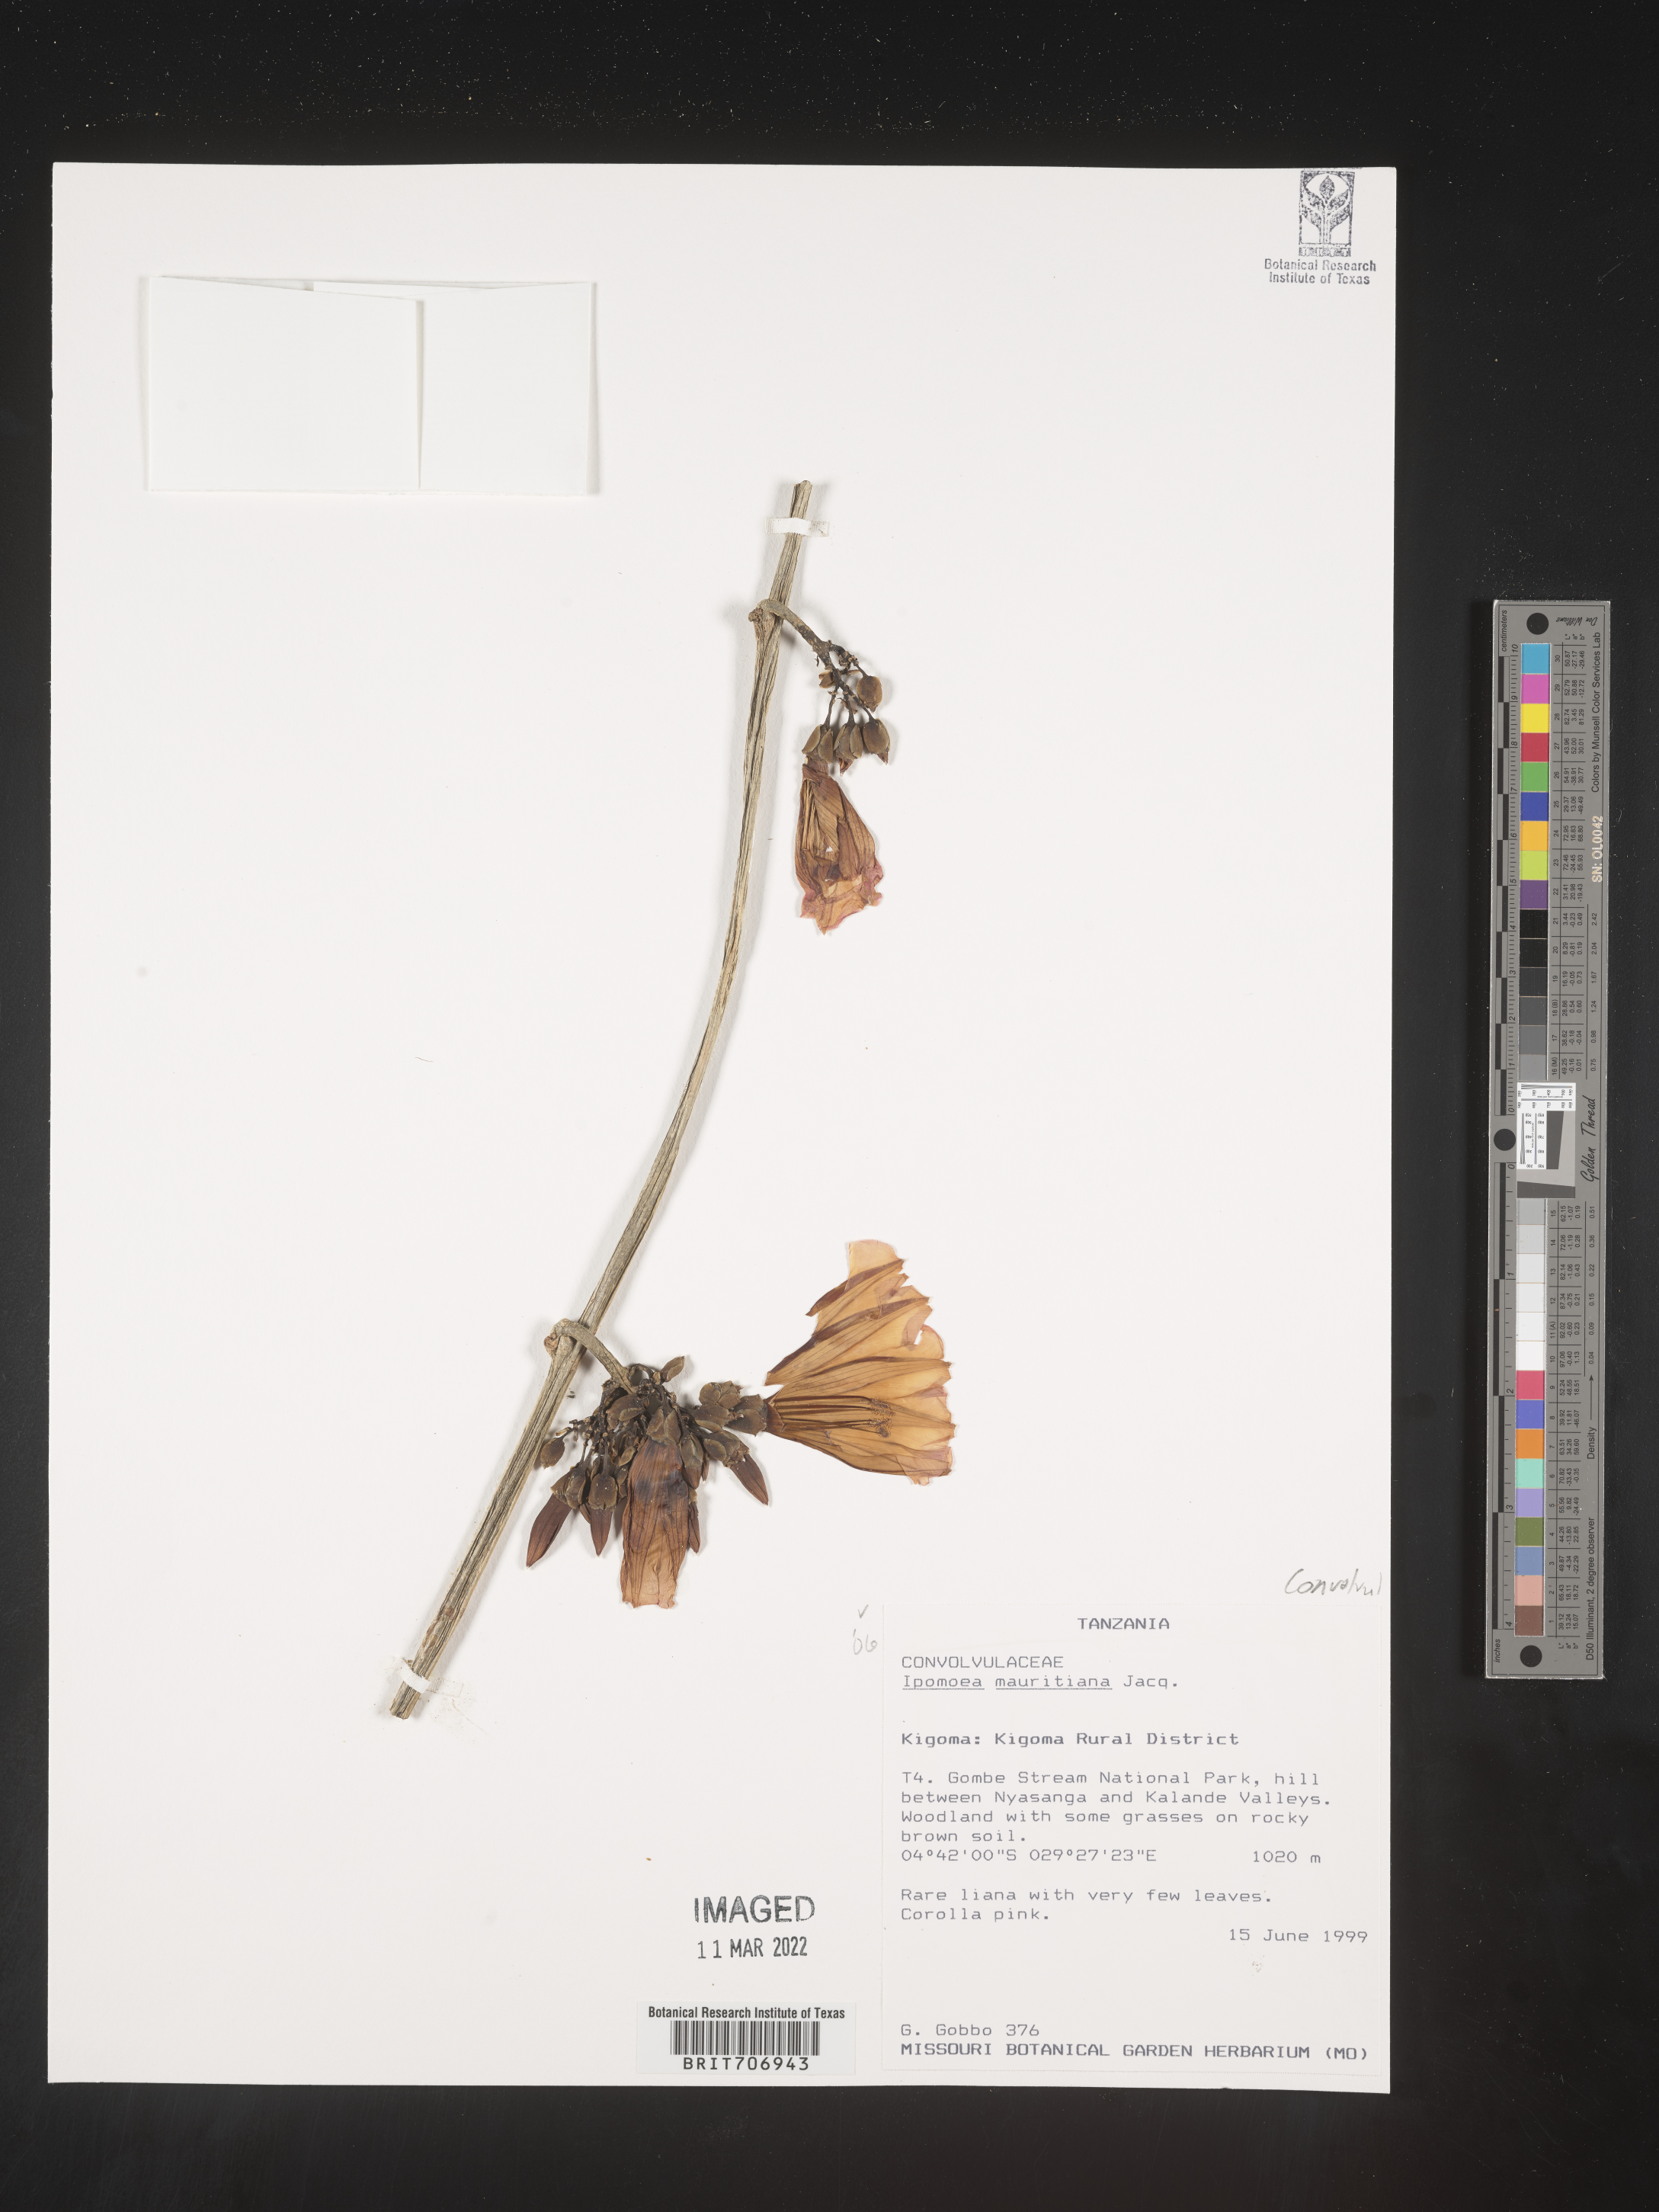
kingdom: Plantae
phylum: Tracheophyta
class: Magnoliopsida
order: Solanales
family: Convolvulaceae
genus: Ipomoea
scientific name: Ipomoea
